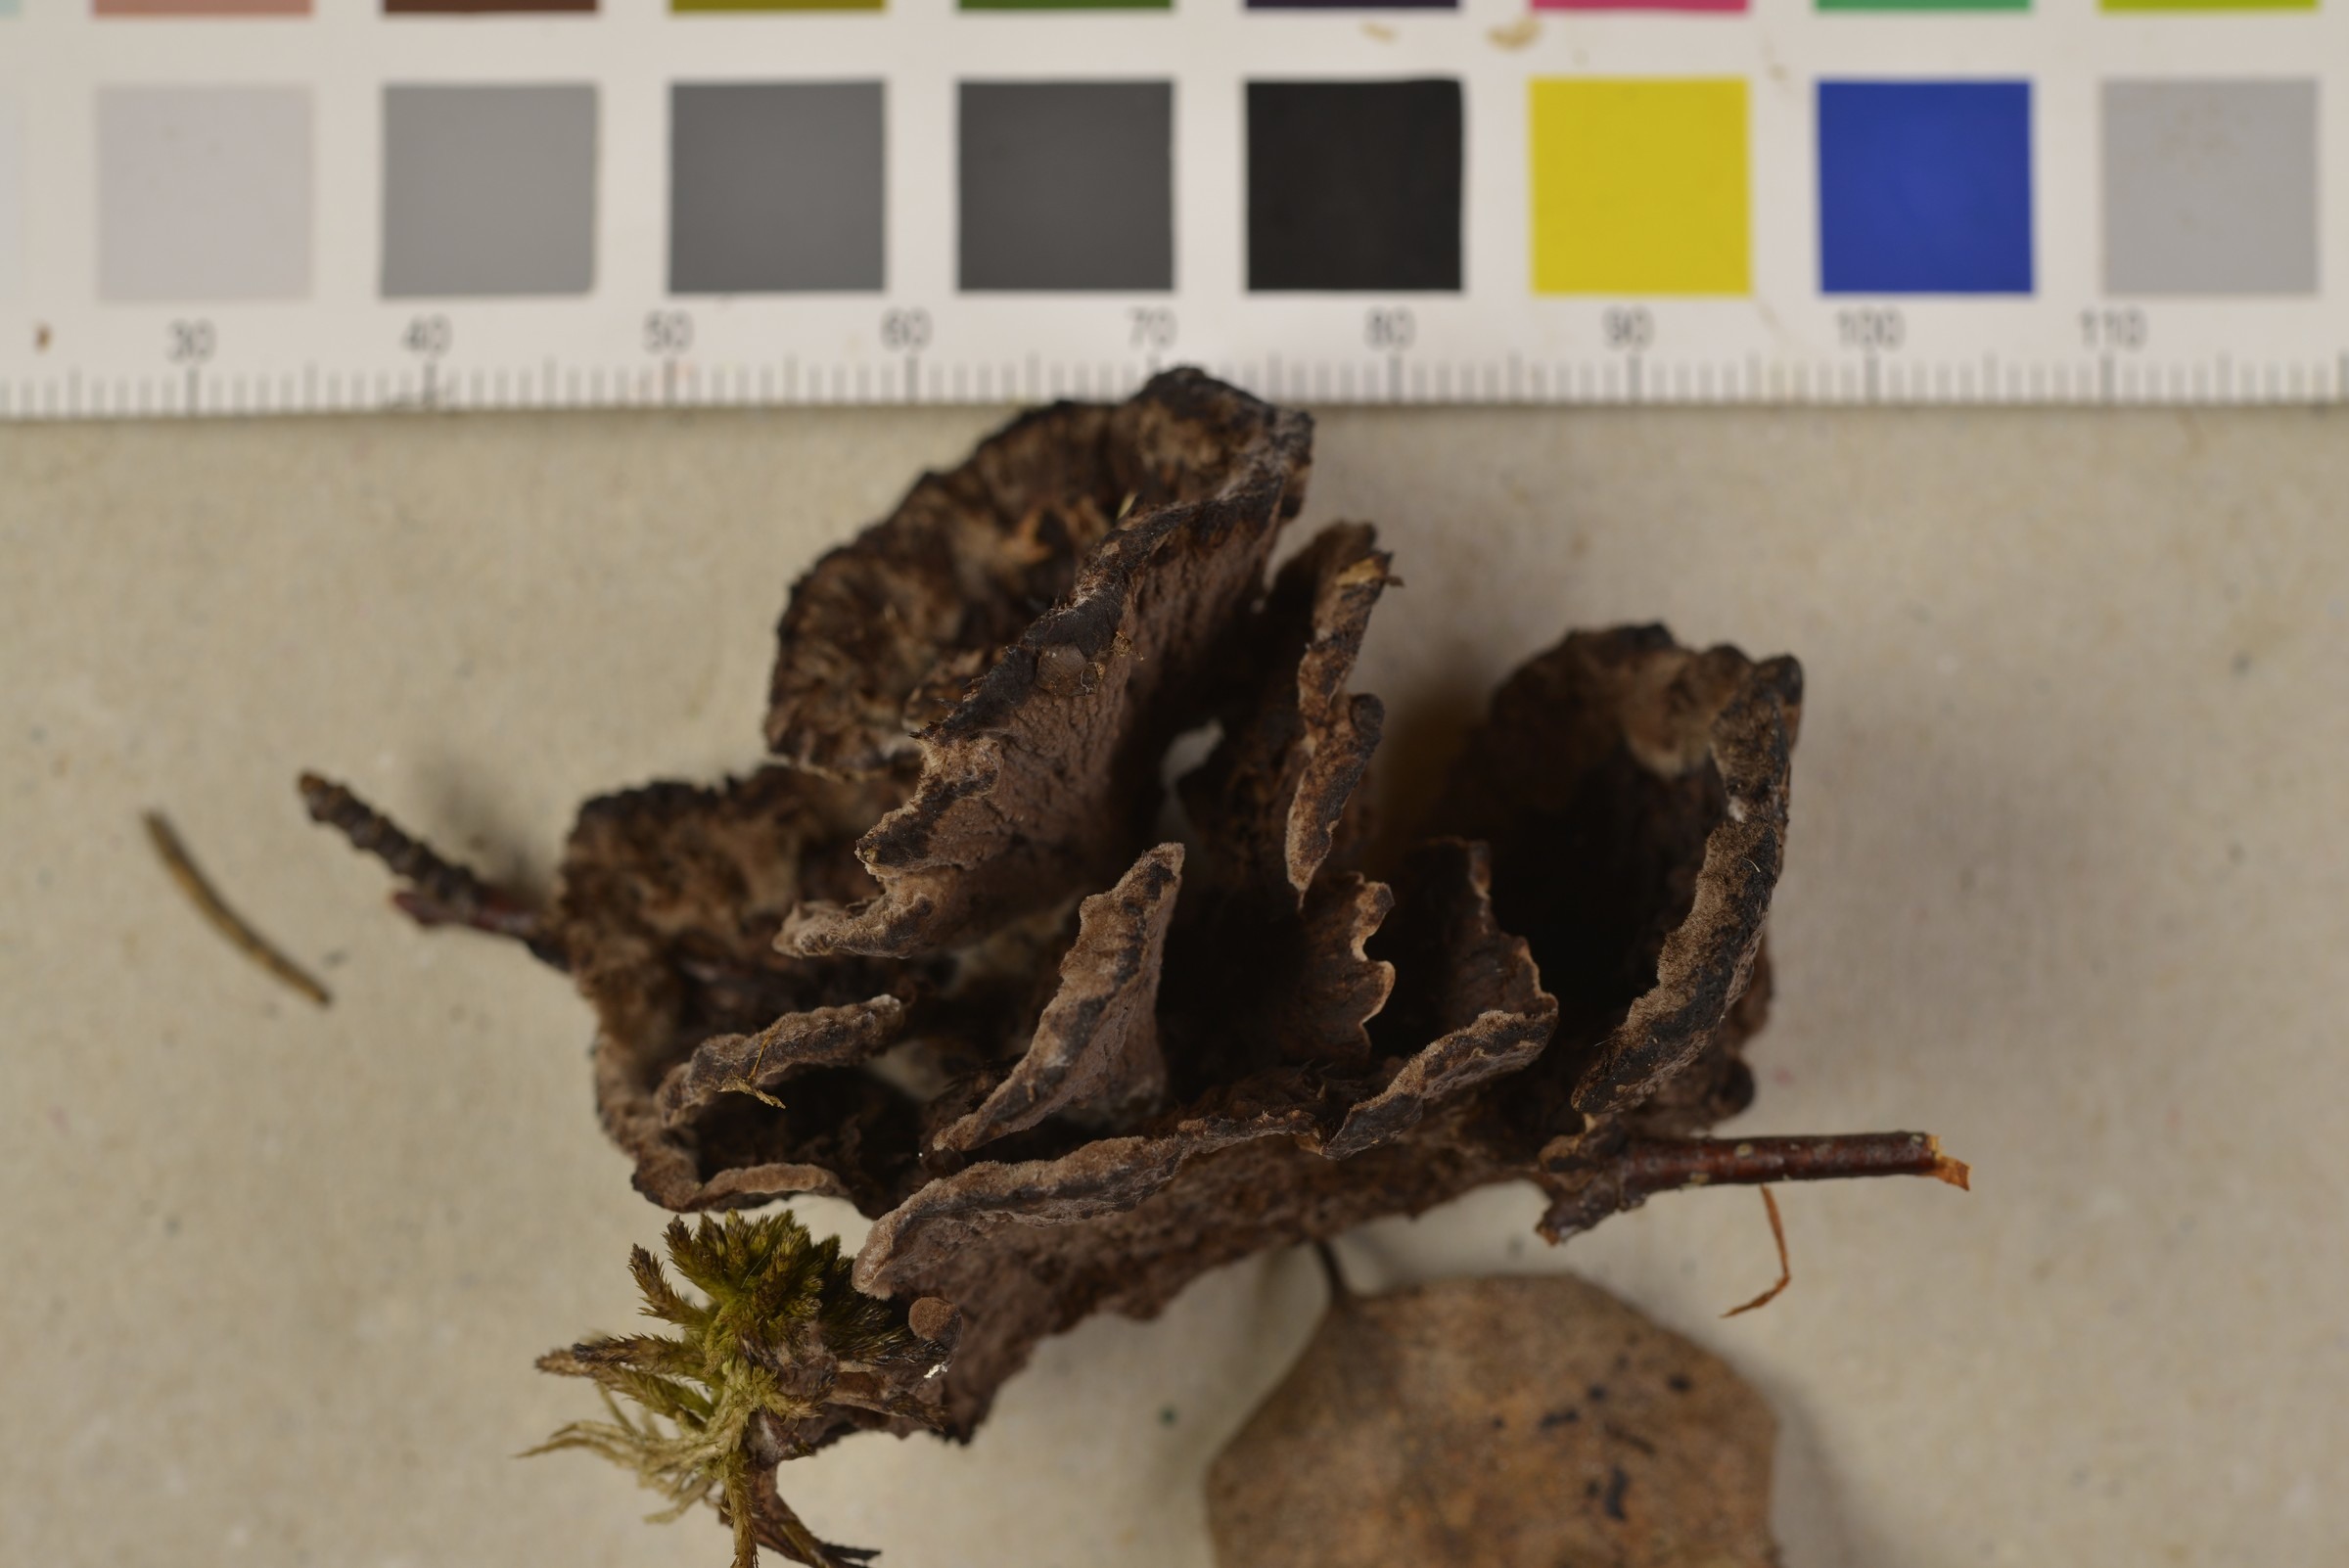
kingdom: Fungi
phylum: Basidiomycota
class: Agaricomycetes
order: Thelephorales
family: Thelephoraceae
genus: Thelephora
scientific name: Thelephora terrestris
